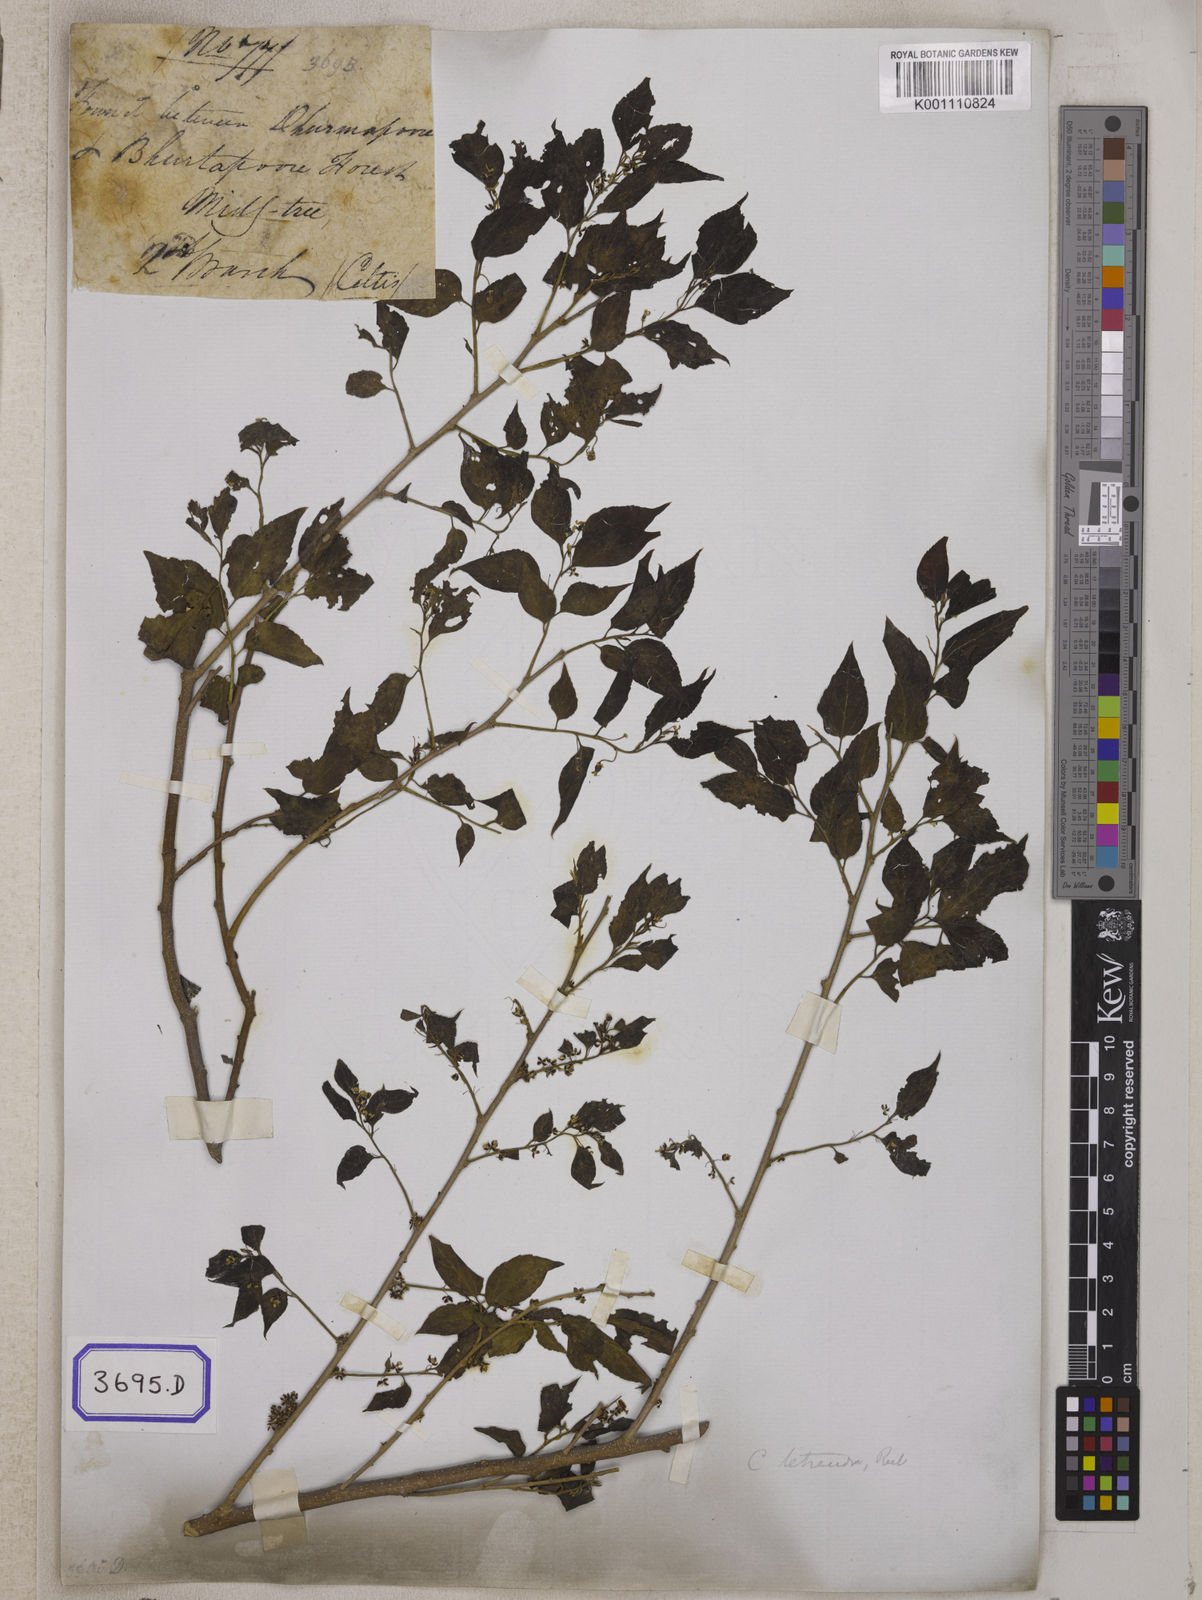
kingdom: Plantae
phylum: Tracheophyta
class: Magnoliopsida
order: Rosales
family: Cannabaceae
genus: Celtis
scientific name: Celtis
